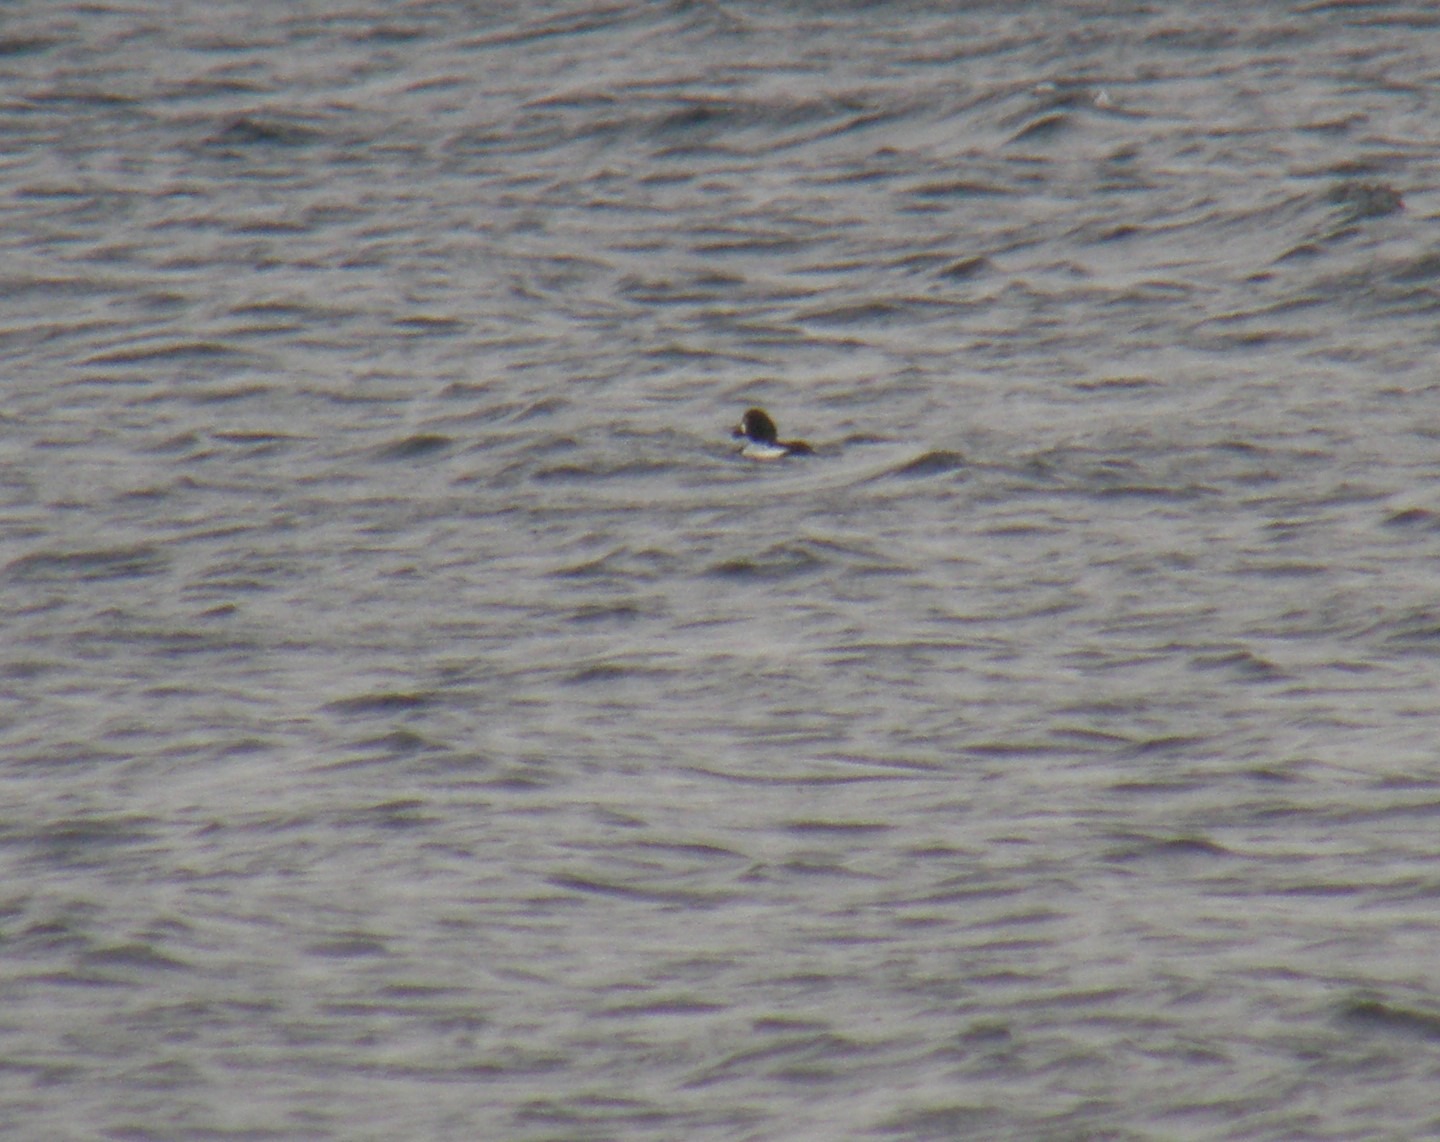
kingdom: Animalia
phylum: Chordata
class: Aves
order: Anseriformes
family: Anatidae
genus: Bucephala
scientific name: Bucephala clangula
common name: Hvinand
